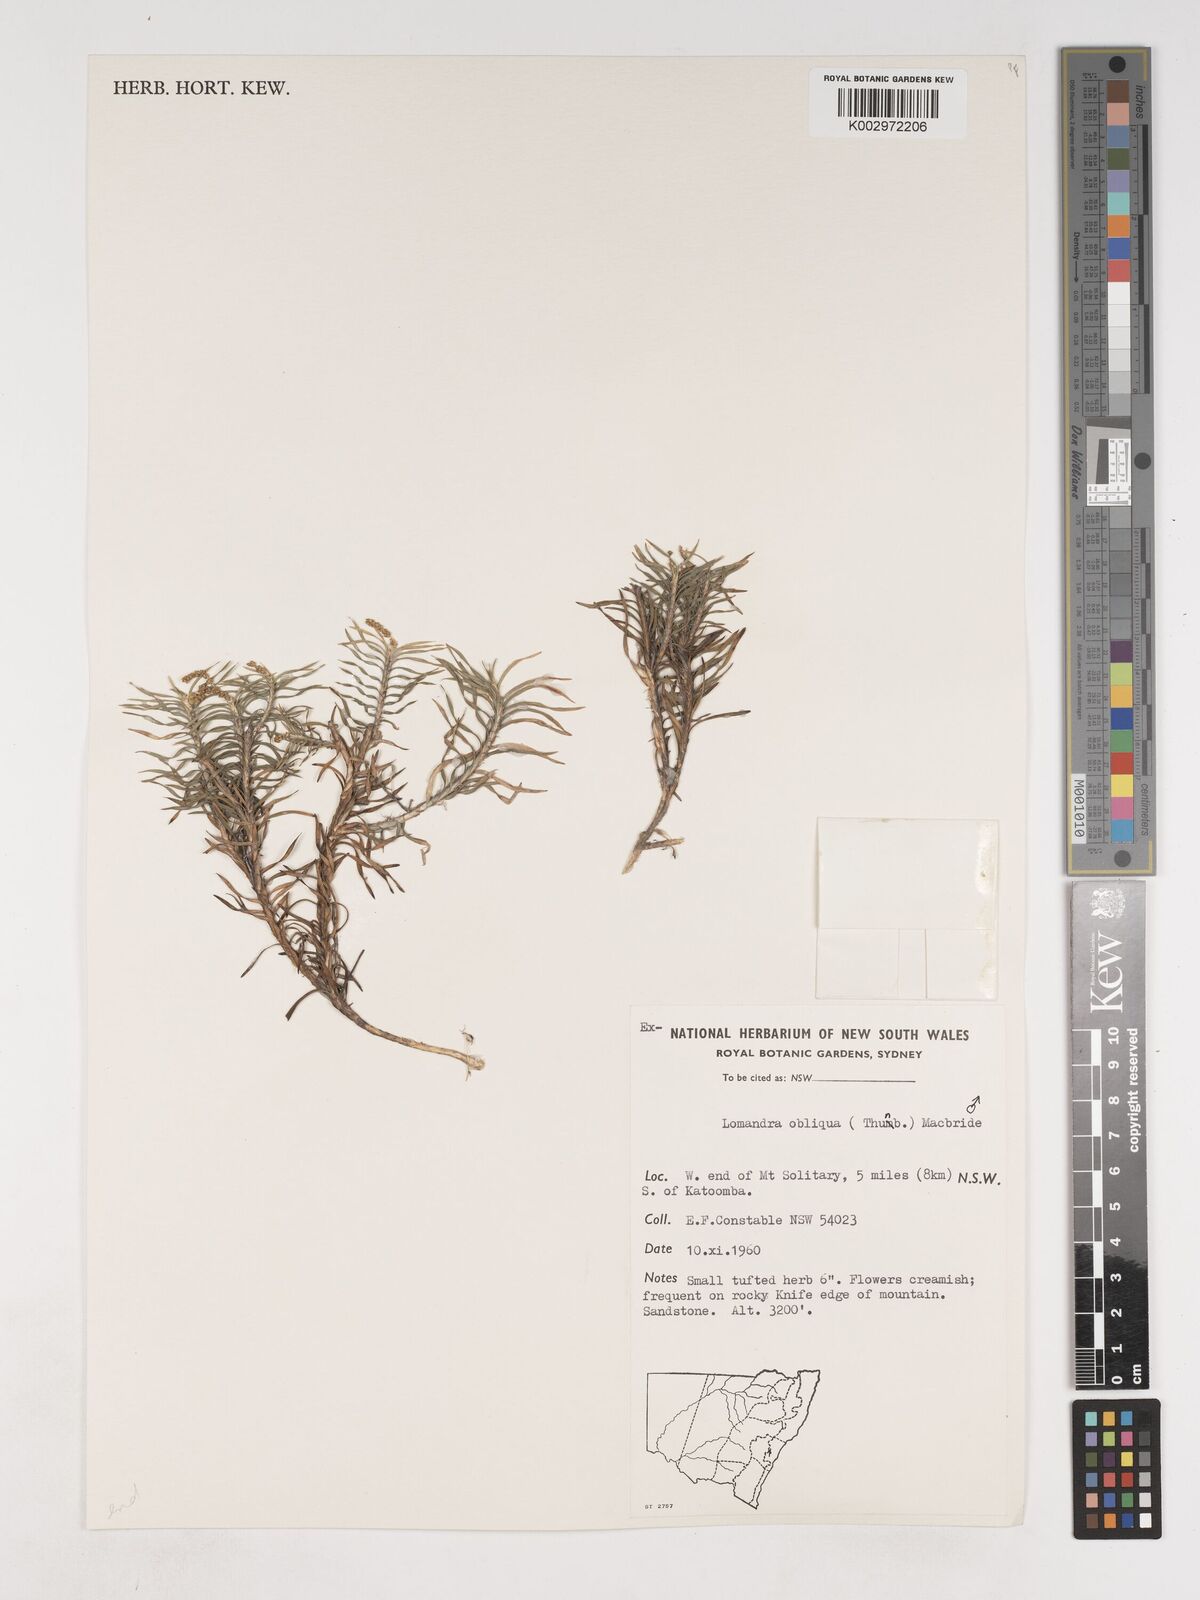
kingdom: Plantae
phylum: Tracheophyta
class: Liliopsida
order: Asparagales
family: Asparagaceae
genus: Lomandra
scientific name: Lomandra obliqua
